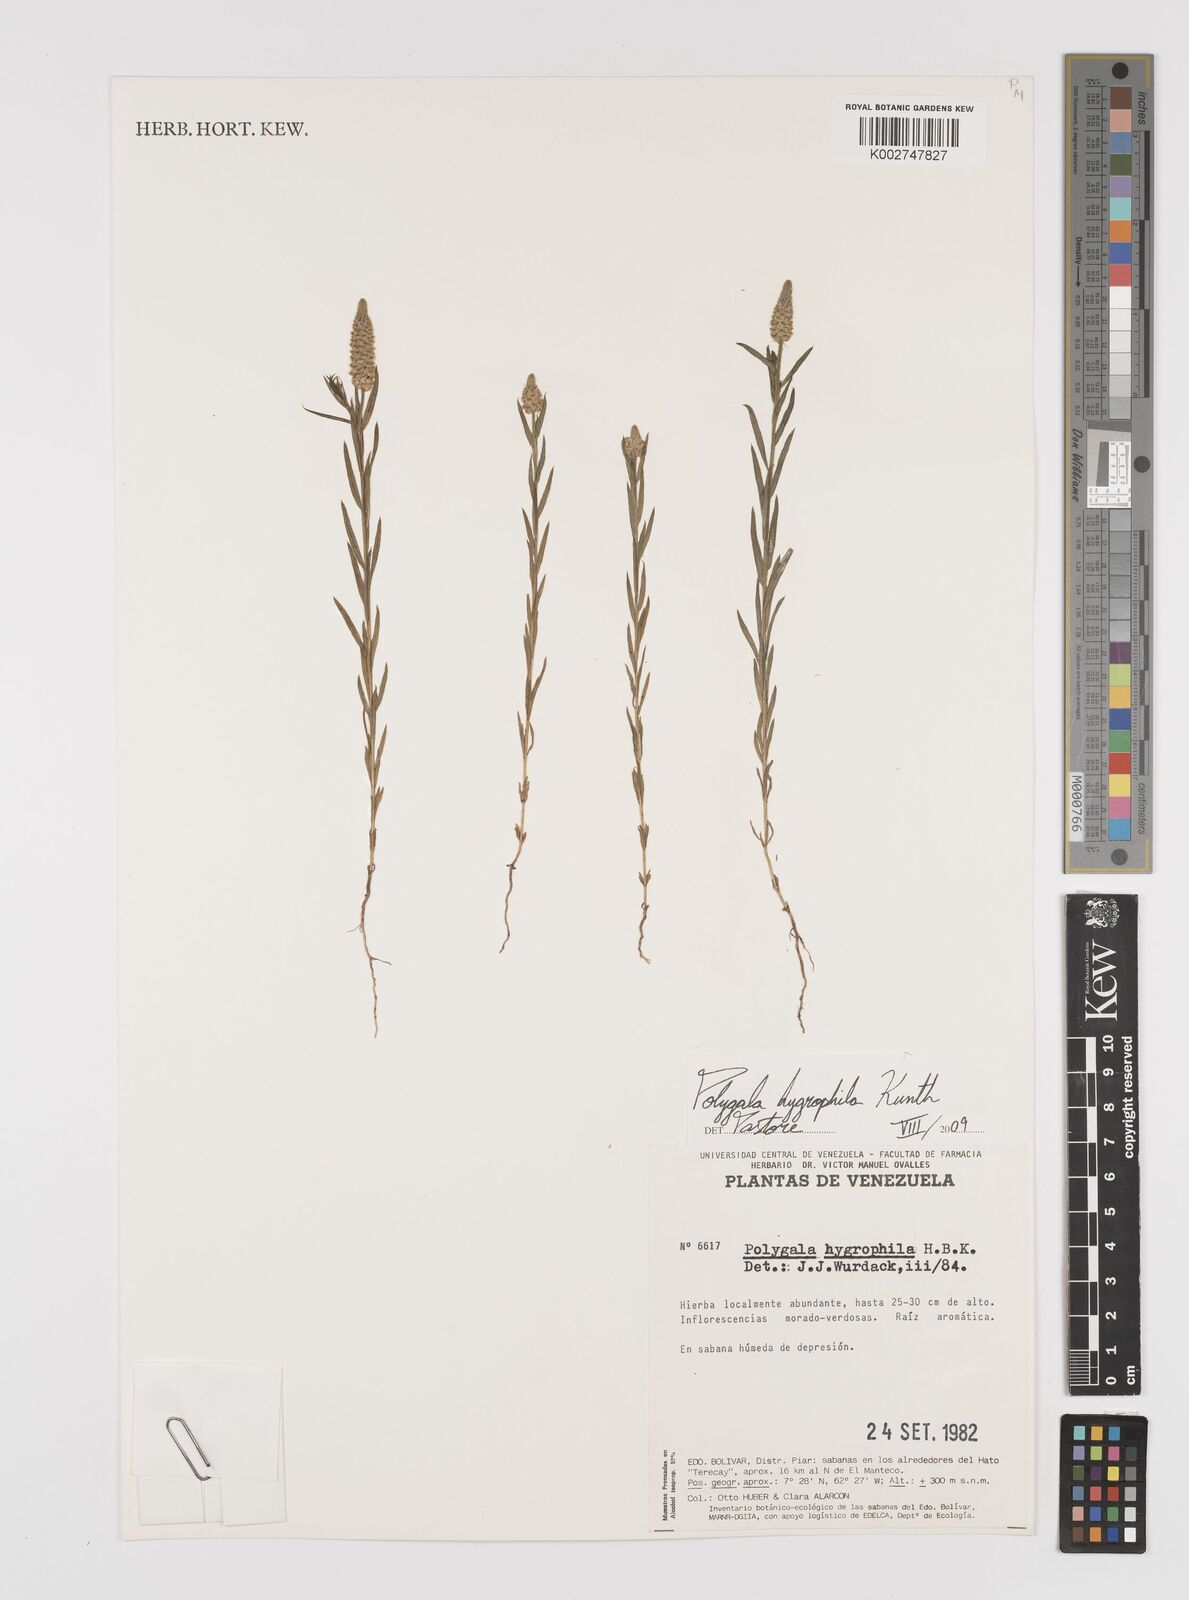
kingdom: Plantae
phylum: Tracheophyta
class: Magnoliopsida
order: Fabales
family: Polygalaceae
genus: Polygala
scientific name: Polygala hygrophila
